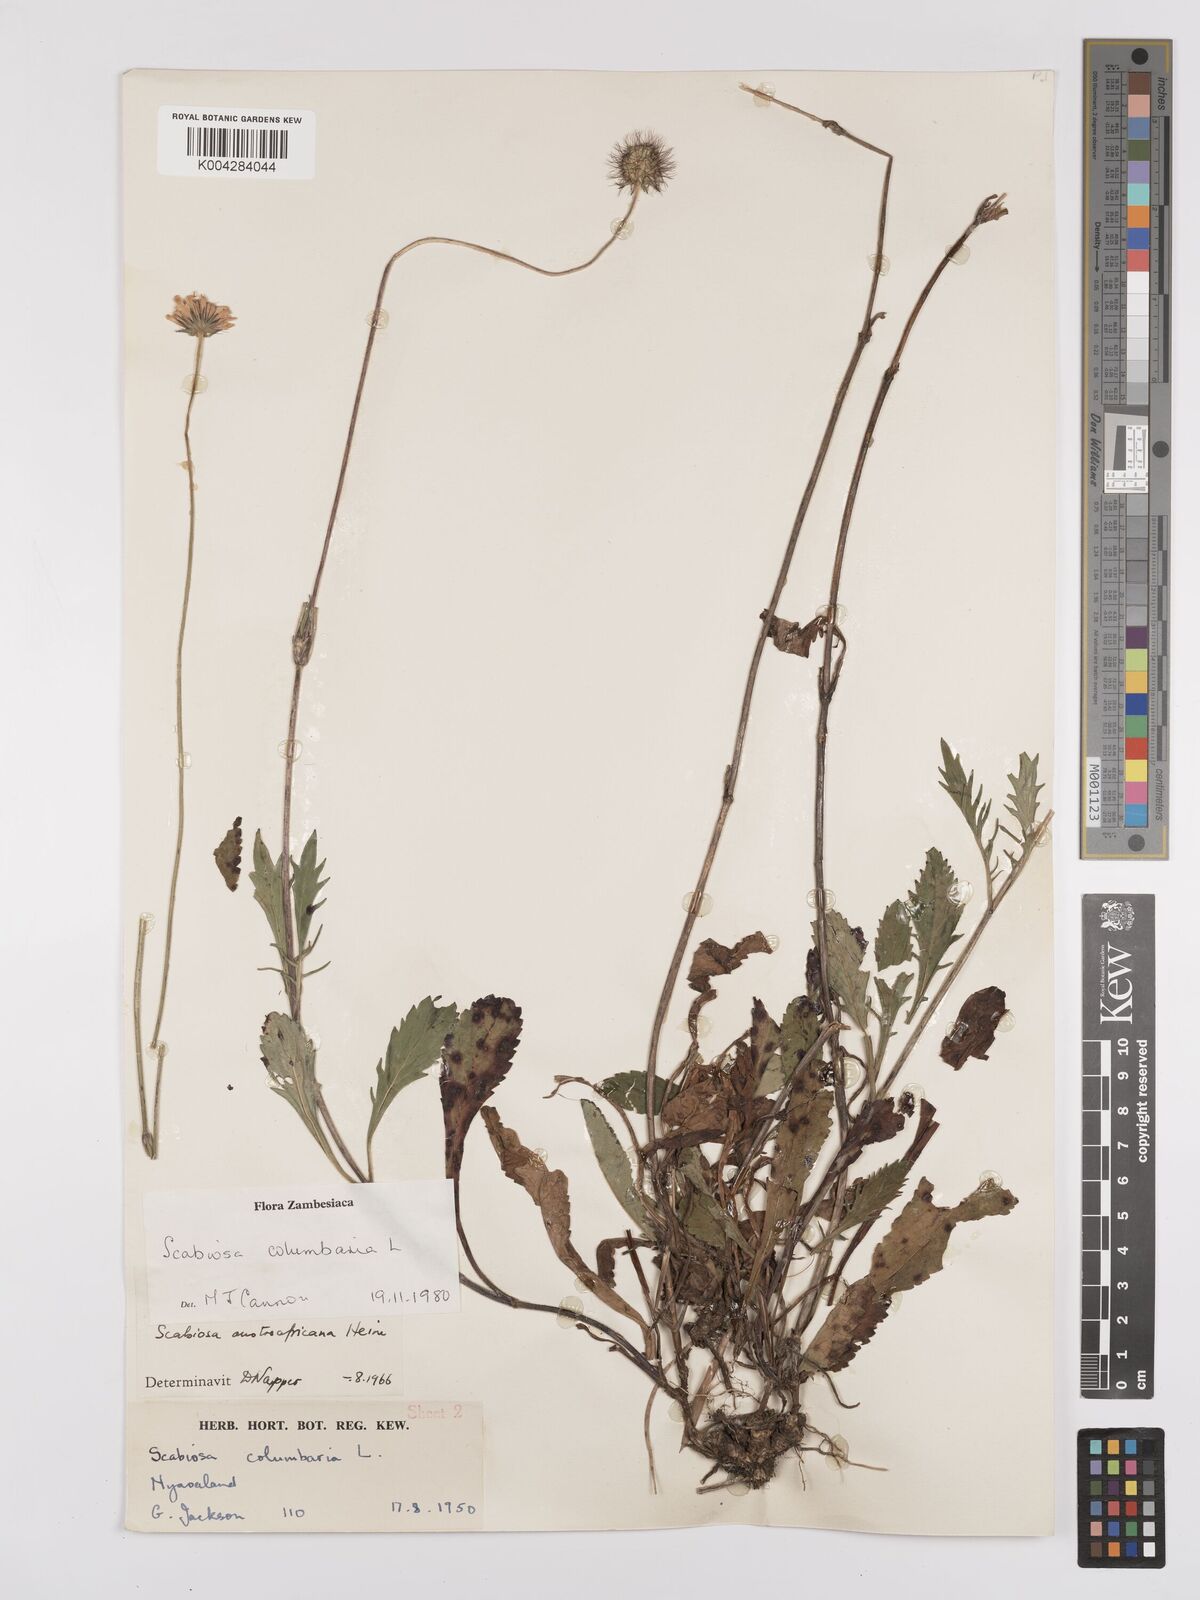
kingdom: Plantae
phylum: Tracheophyta
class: Magnoliopsida
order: Dipsacales
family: Caprifoliaceae
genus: Scabiosa
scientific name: Scabiosa austroafricana
